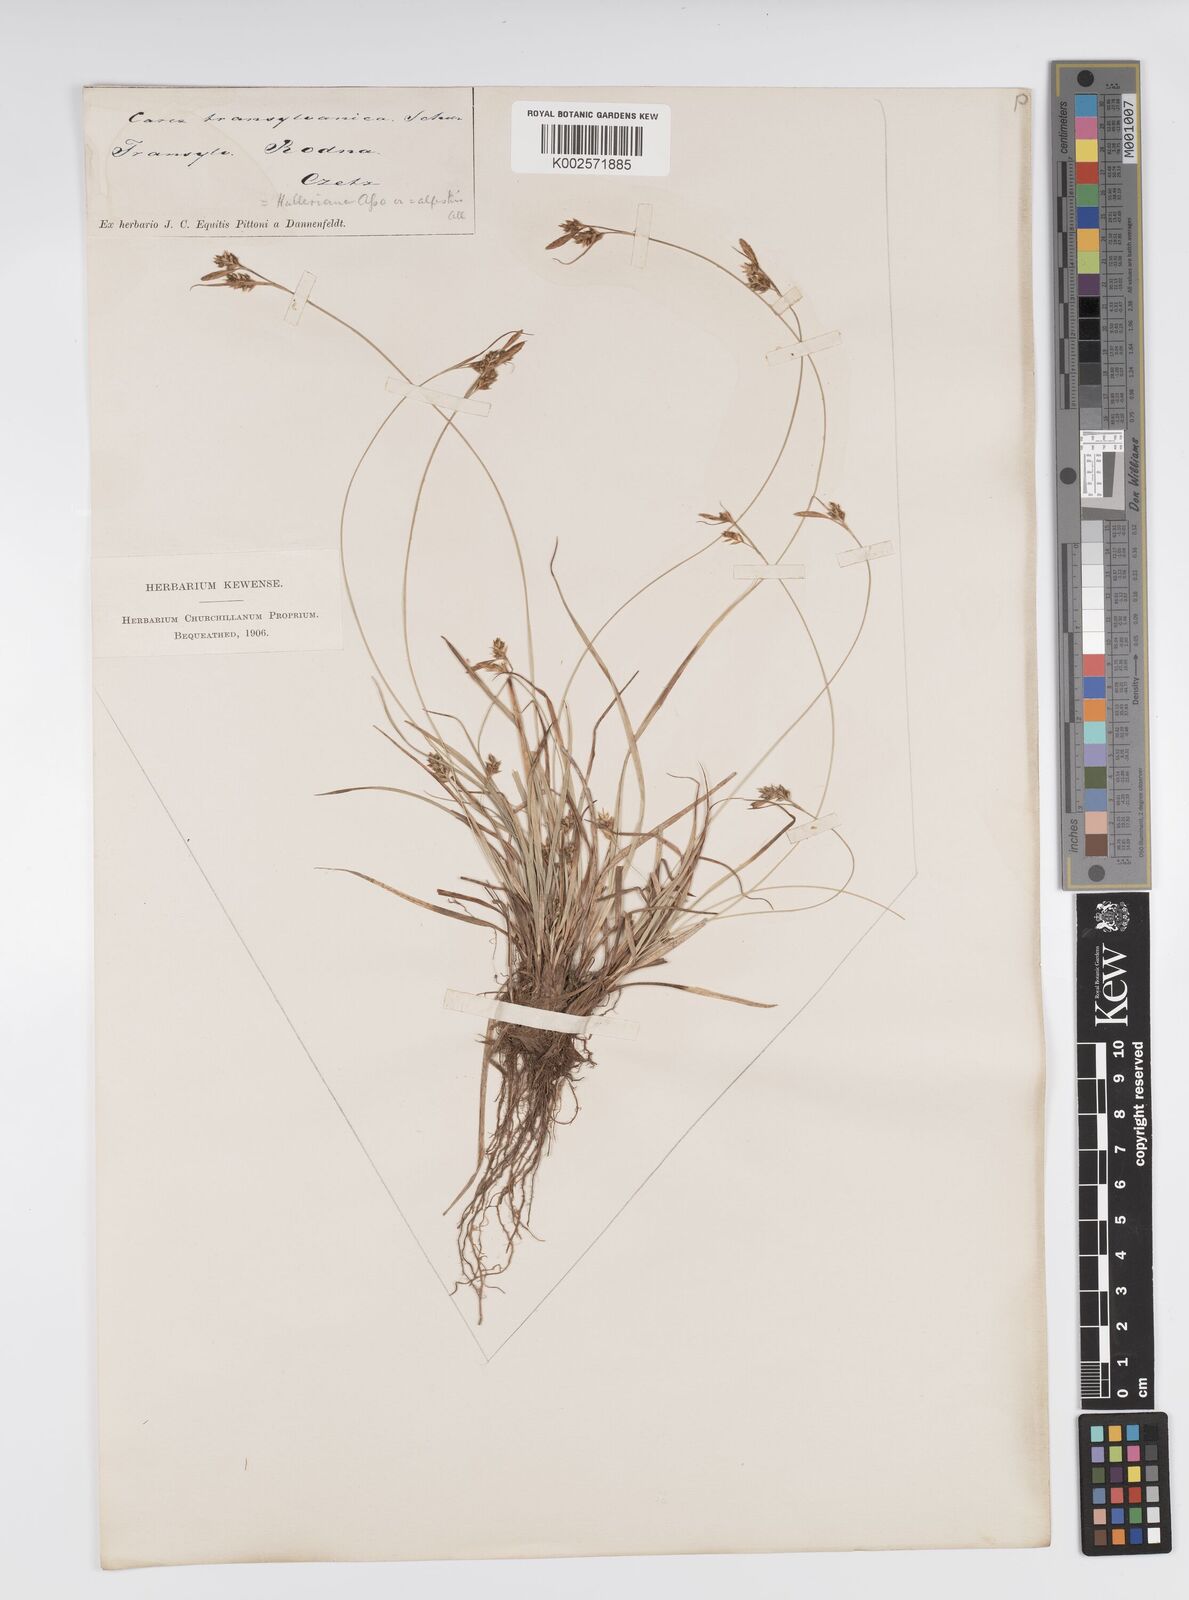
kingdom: Plantae
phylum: Tracheophyta
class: Liliopsida
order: Poales
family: Cyperaceae
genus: Carex
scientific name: Carex halleriana
